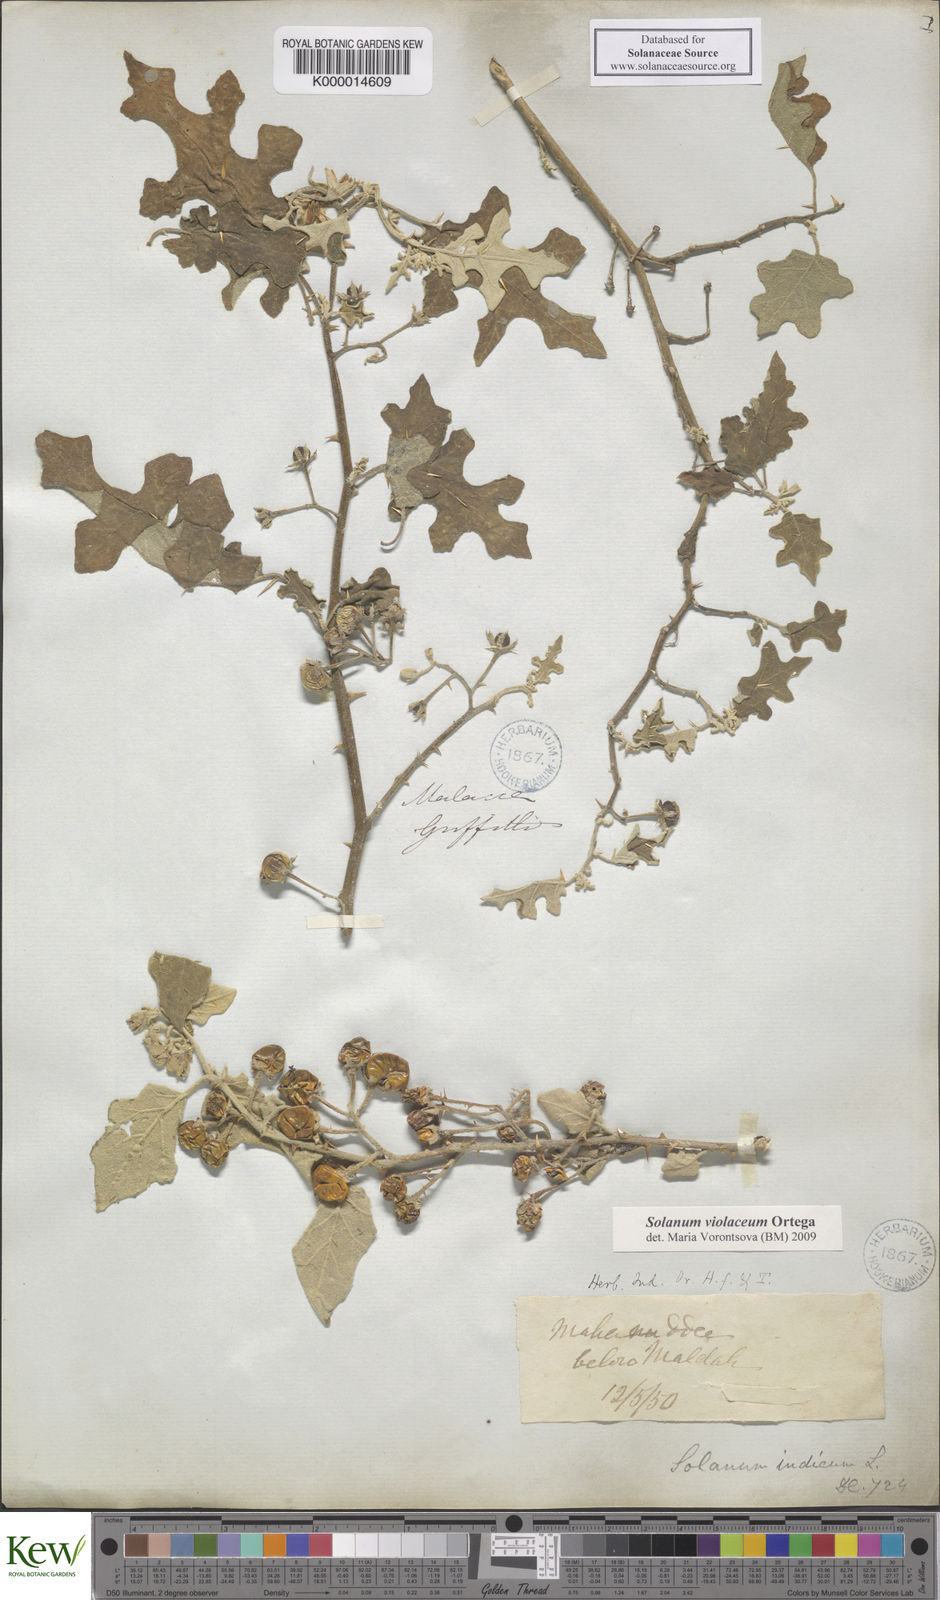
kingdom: Plantae
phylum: Tracheophyta
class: Magnoliopsida
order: Solanales
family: Solanaceae
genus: Solanum
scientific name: Solanum violaceum
